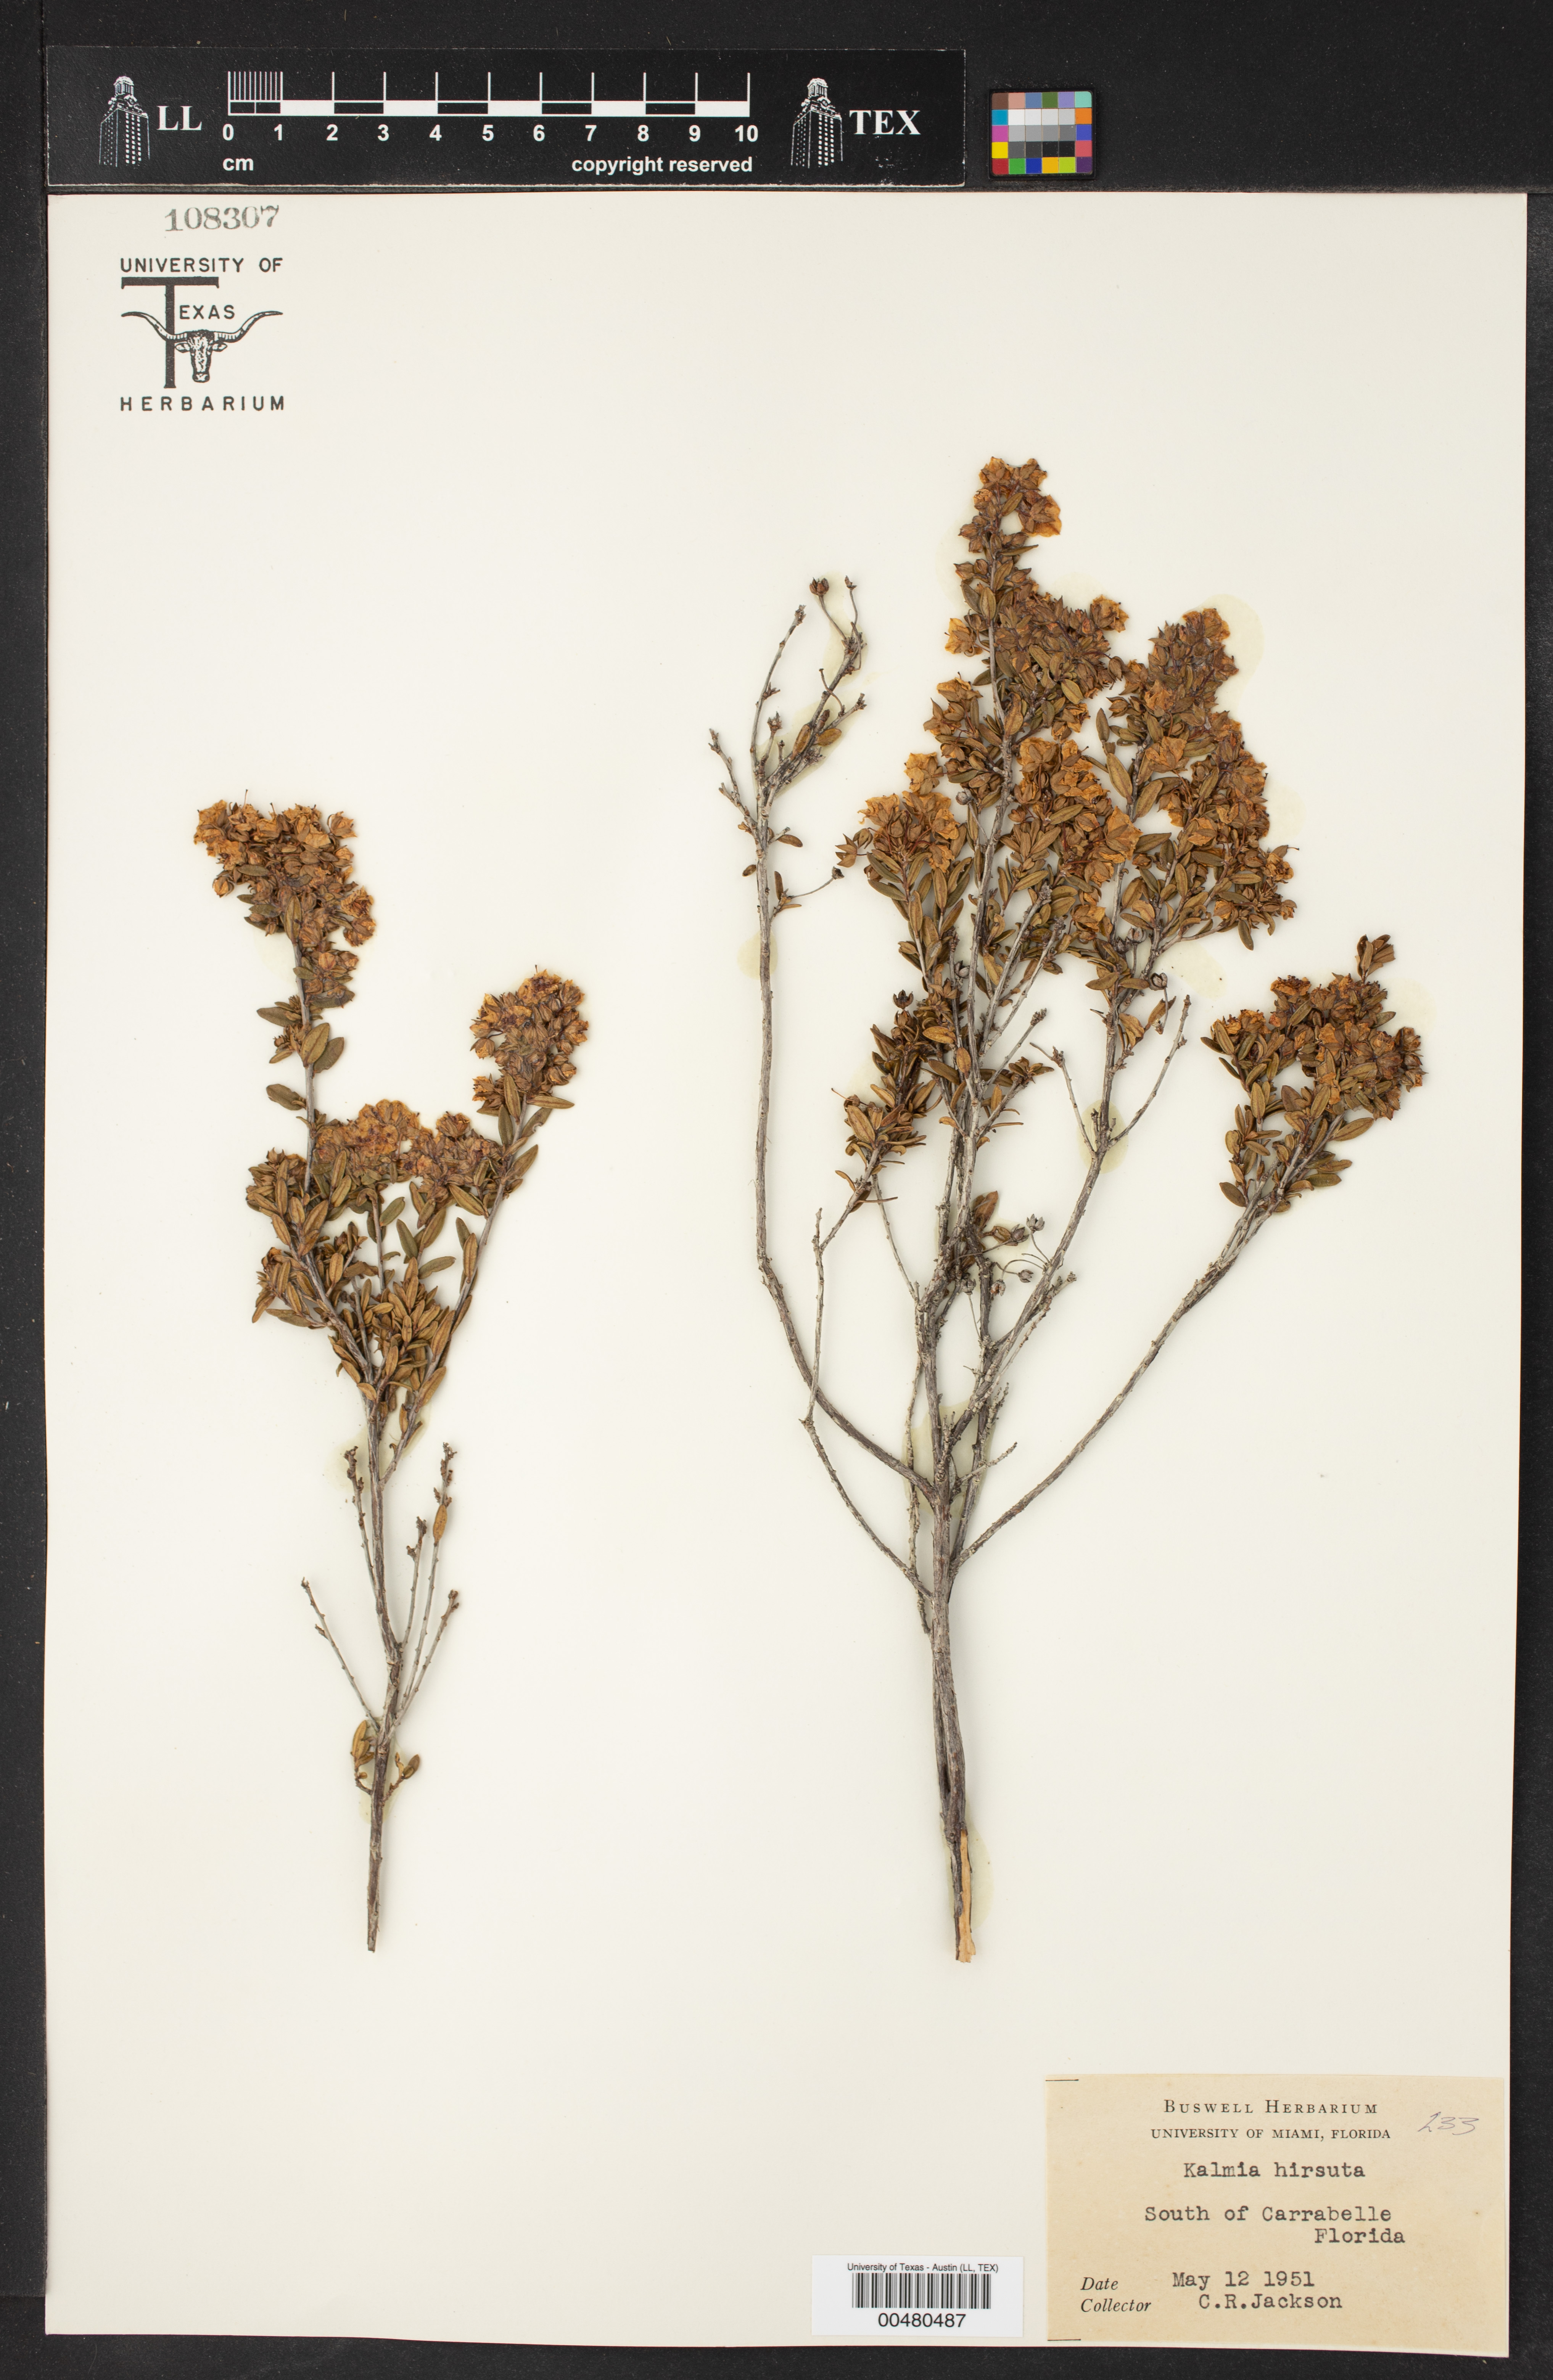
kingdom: Plantae
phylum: Tracheophyta
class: Magnoliopsida
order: Ericales
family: Ericaceae
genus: Kalmia
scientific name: Kalmia hirsuta
